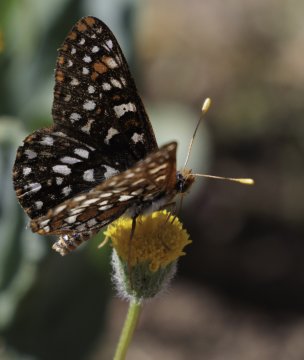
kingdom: Animalia
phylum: Arthropoda
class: Insecta
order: Lepidoptera
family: Nymphalidae
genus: Occidryas
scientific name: Occidryas chalcedona
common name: Chalcedon Checkerspot
